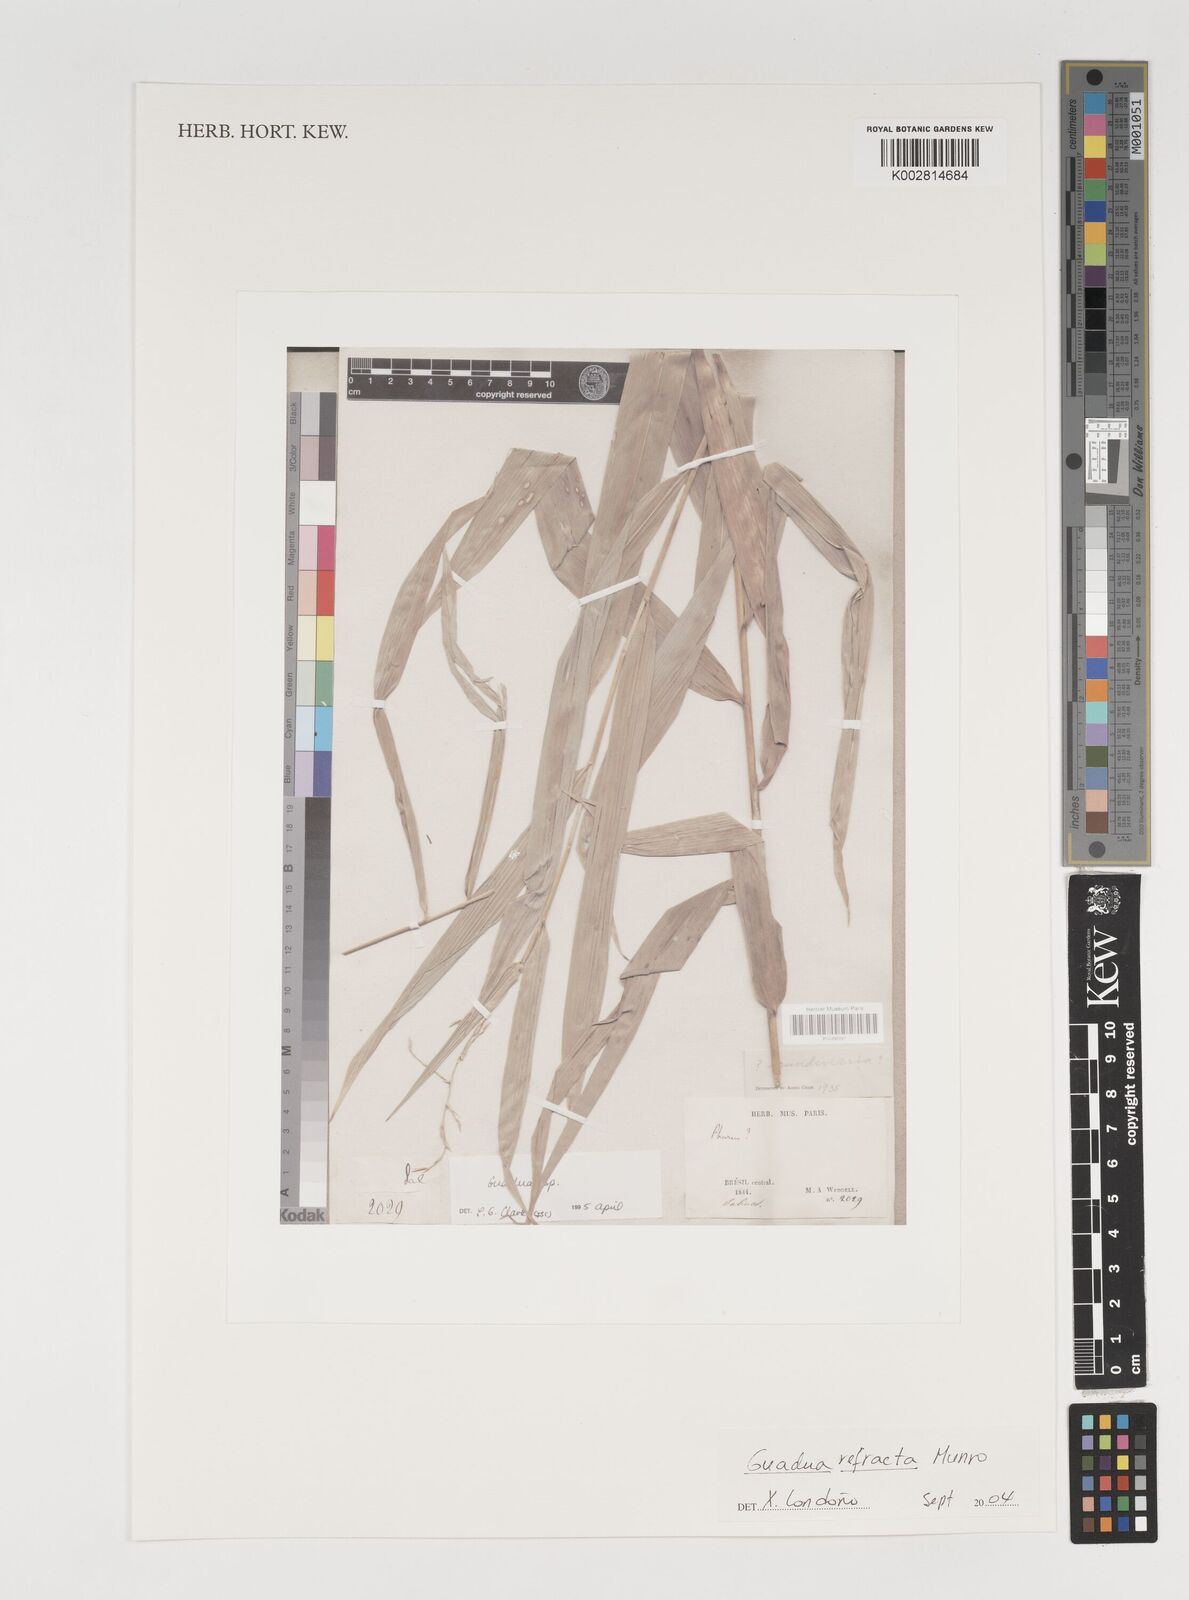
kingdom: Plantae
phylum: Tracheophyta
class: Liliopsida
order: Poales
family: Poaceae
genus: Guadua
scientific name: Guadua refracta
